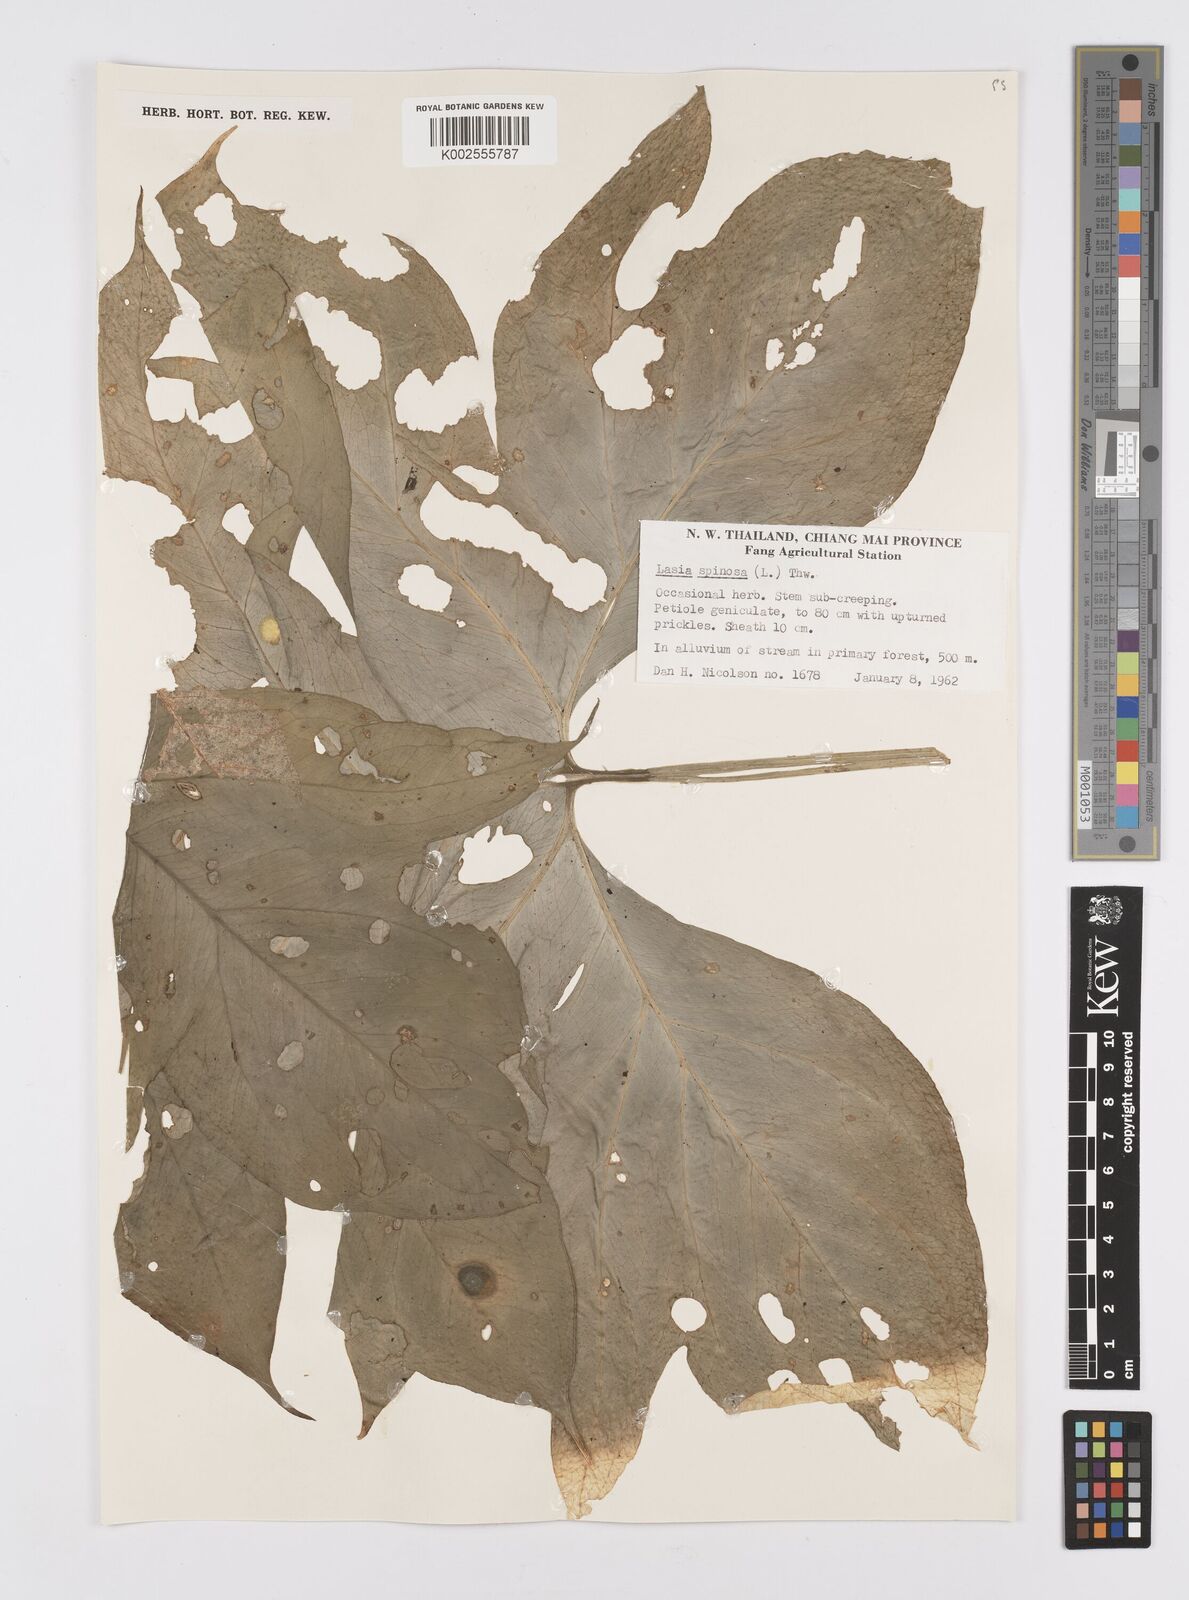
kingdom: Plantae
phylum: Tracheophyta
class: Liliopsida
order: Alismatales
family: Araceae
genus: Lasia
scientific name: Lasia spinosa
